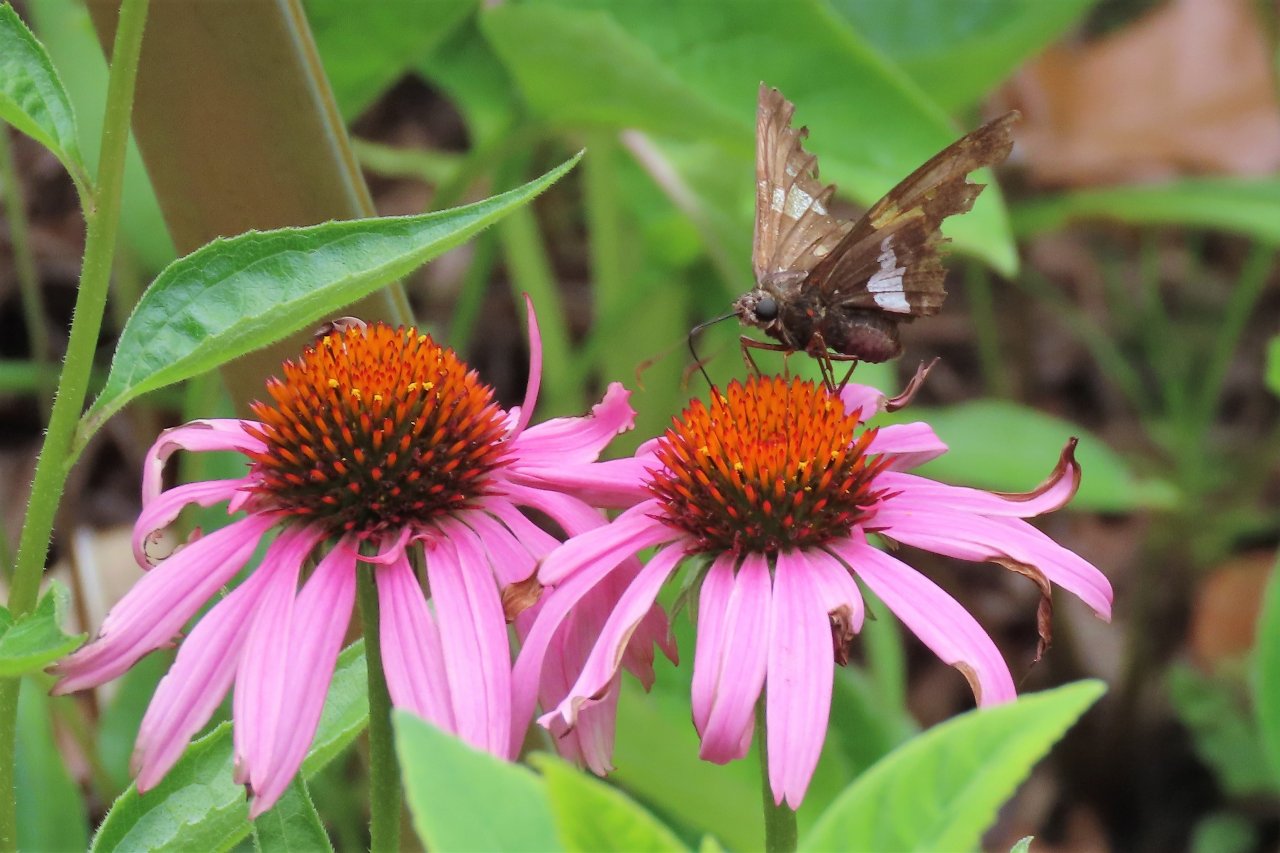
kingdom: Animalia
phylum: Arthropoda
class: Insecta
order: Lepidoptera
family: Hesperiidae
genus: Epargyreus
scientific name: Epargyreus clarus
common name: Silver-spotted Skipper
